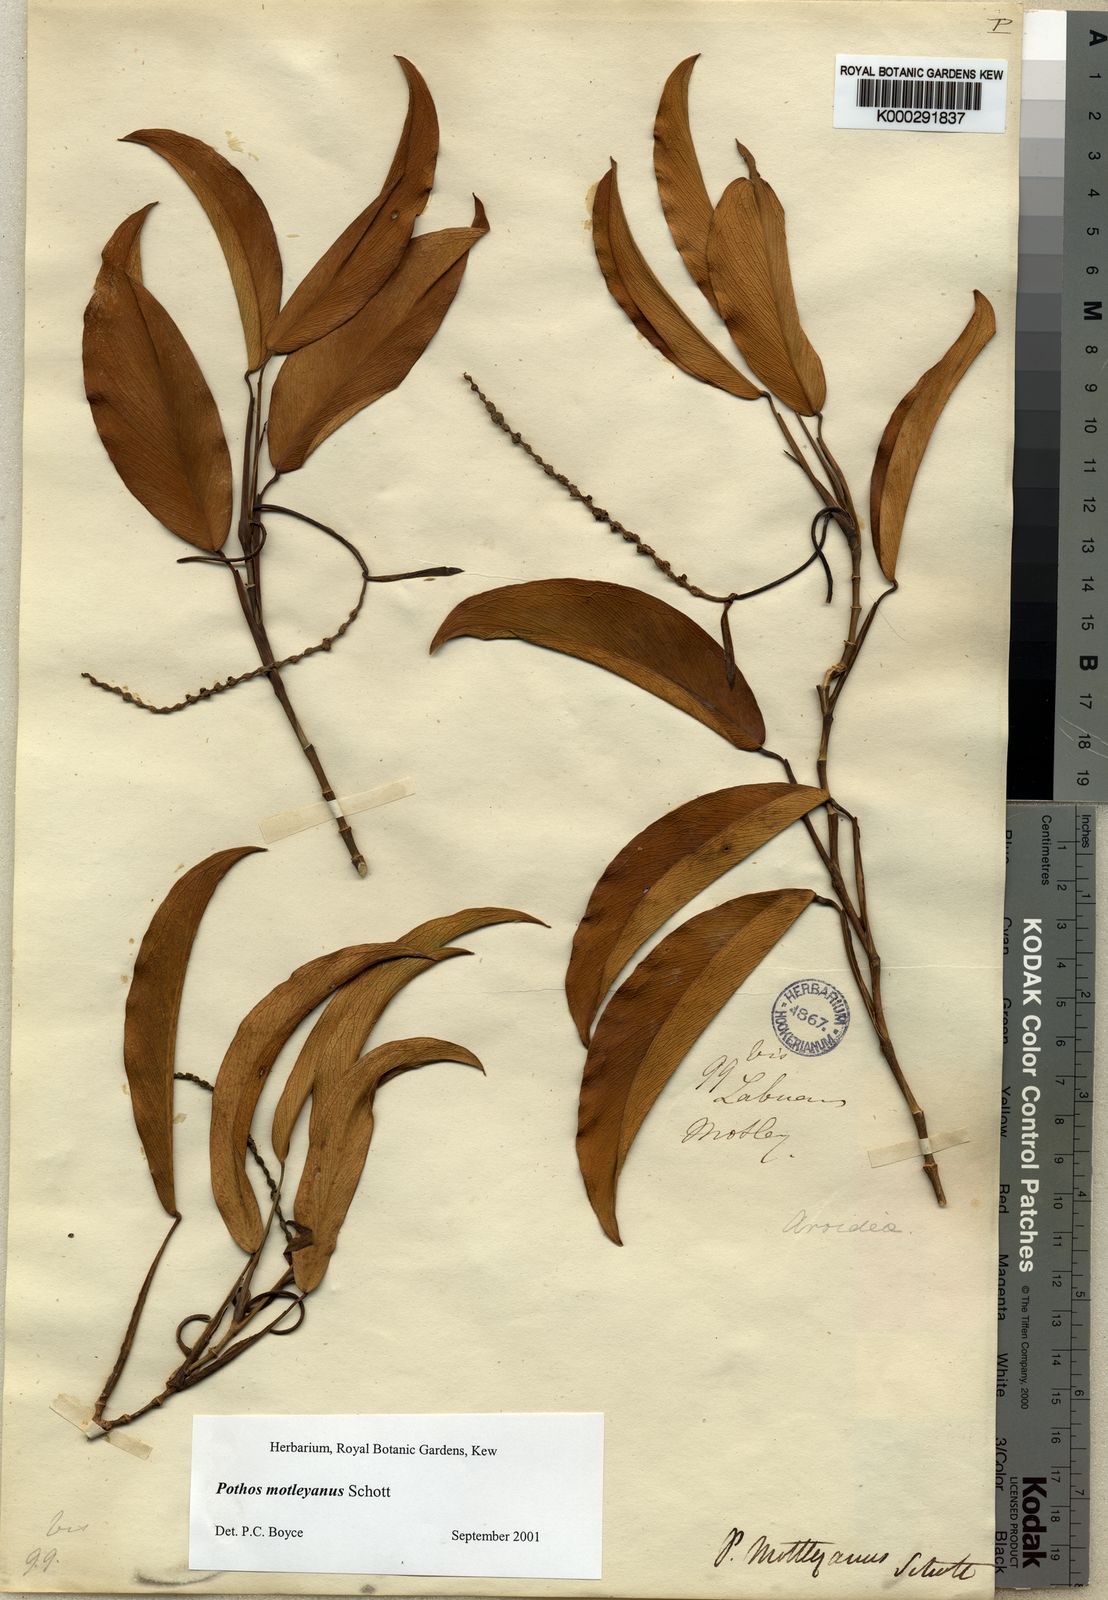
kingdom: Plantae
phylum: Tracheophyta
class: Liliopsida
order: Alismatales
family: Araceae
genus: Pothos
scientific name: Pothos motleyanus
